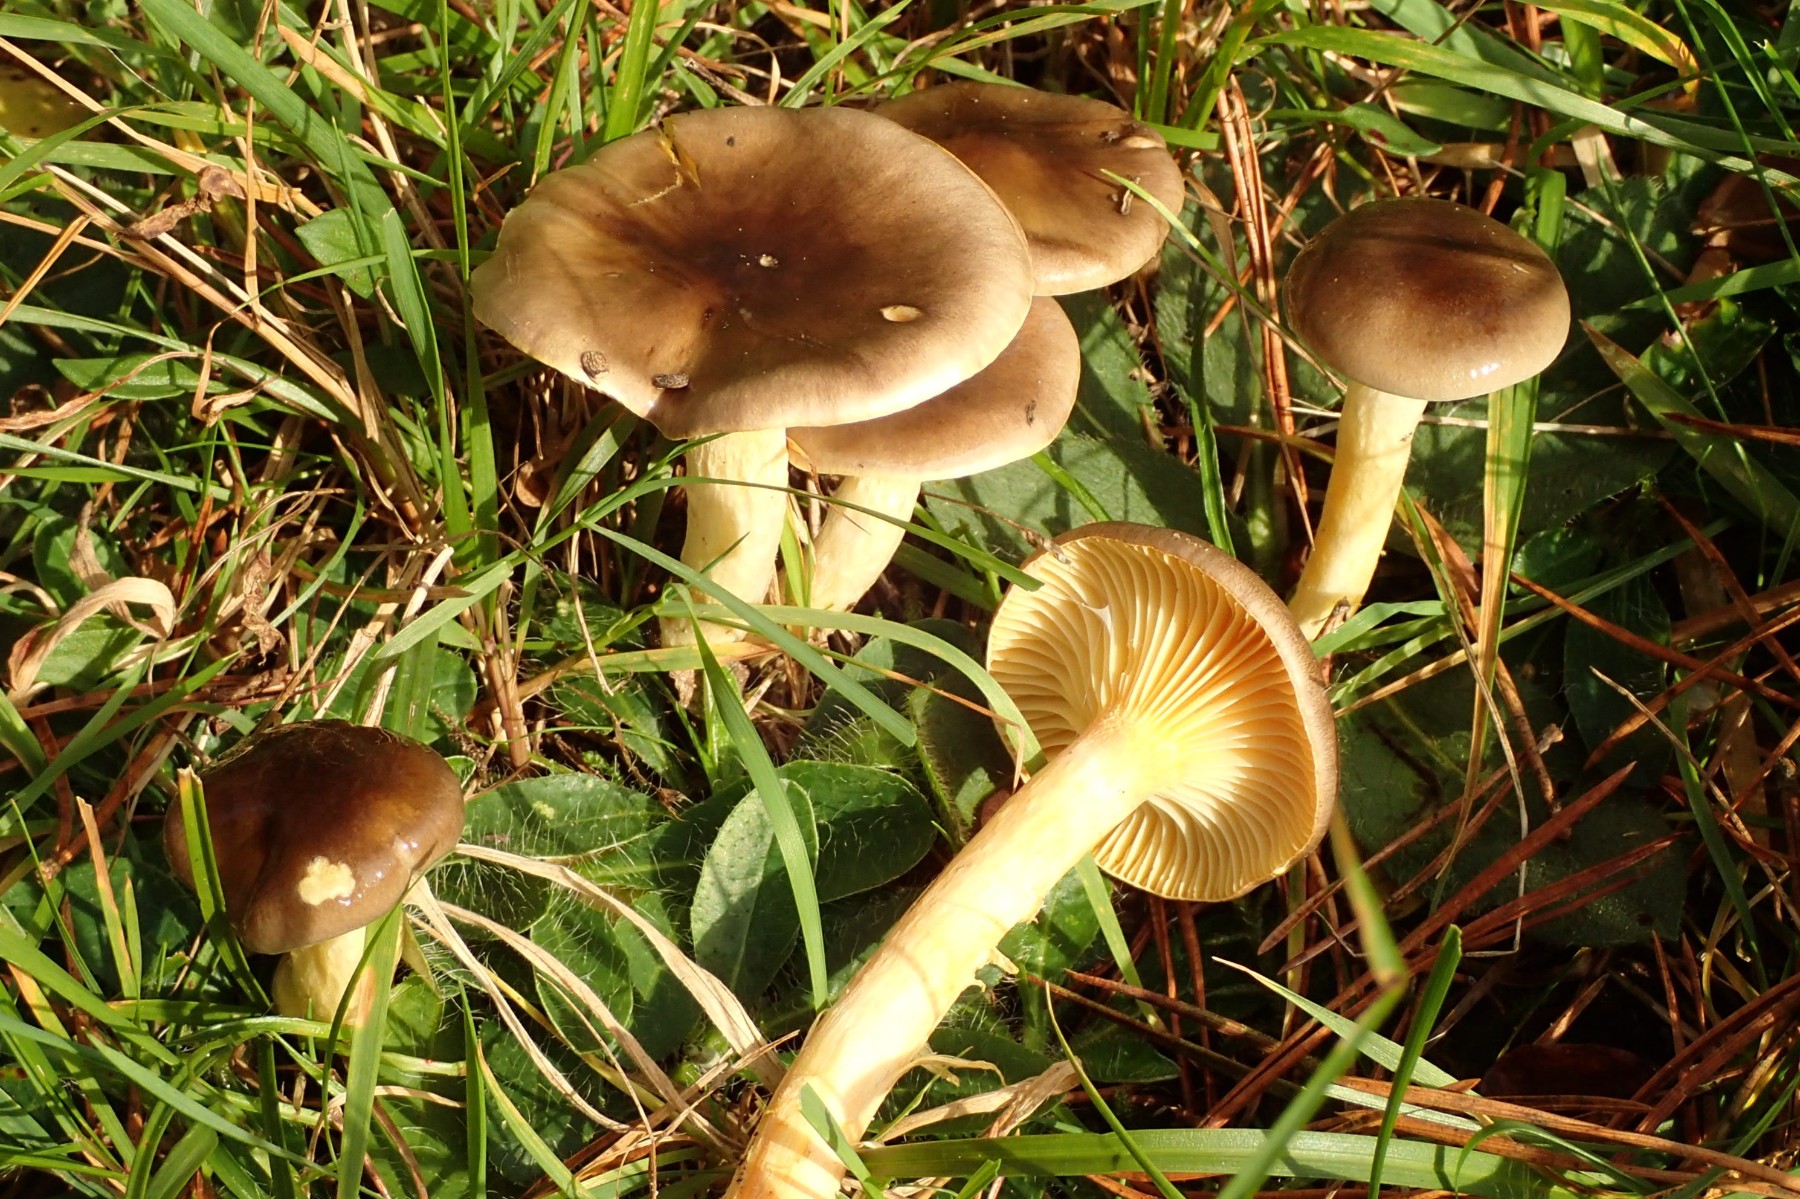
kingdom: Fungi
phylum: Basidiomycota
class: Agaricomycetes
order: Agaricales
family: Hygrophoraceae
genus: Hygrophorus
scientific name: Hygrophorus hypothejus
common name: frost-sneglehat
